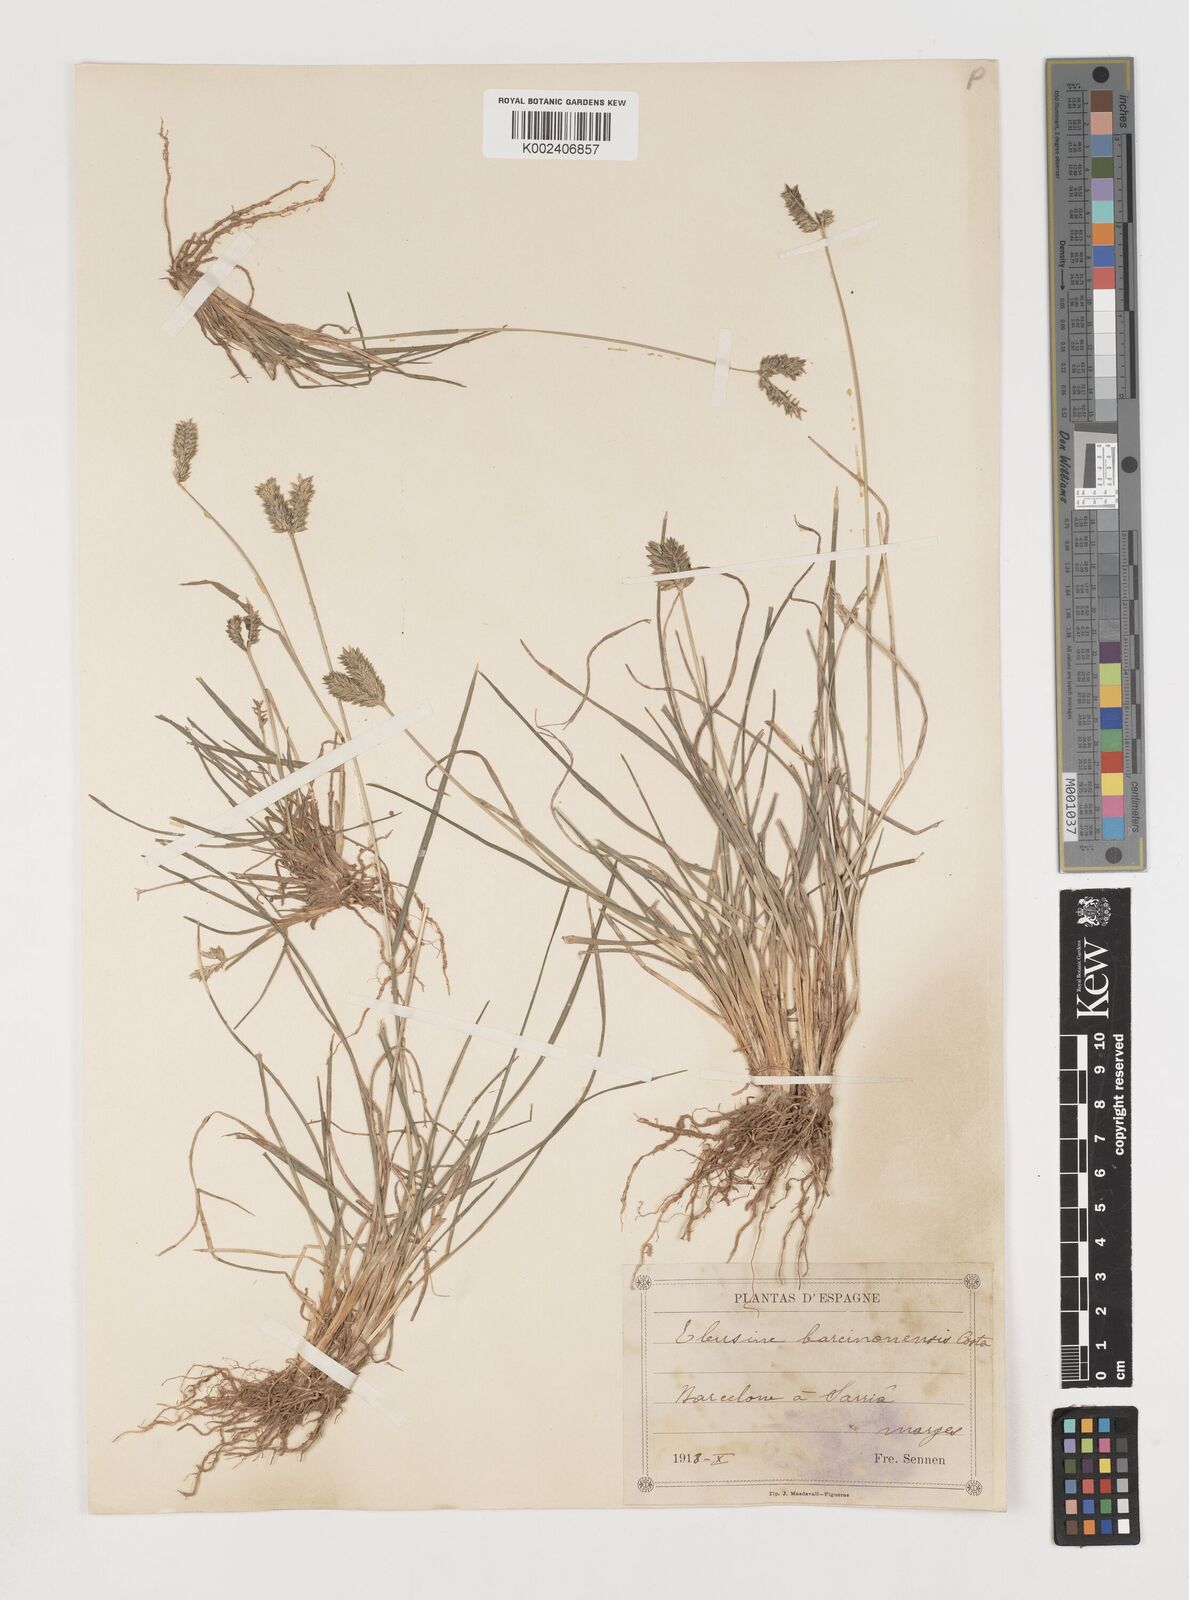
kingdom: Plantae
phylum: Tracheophyta
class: Liliopsida
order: Poales
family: Poaceae
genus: Eleusine
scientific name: Eleusine tristachya
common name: American yard-grass
